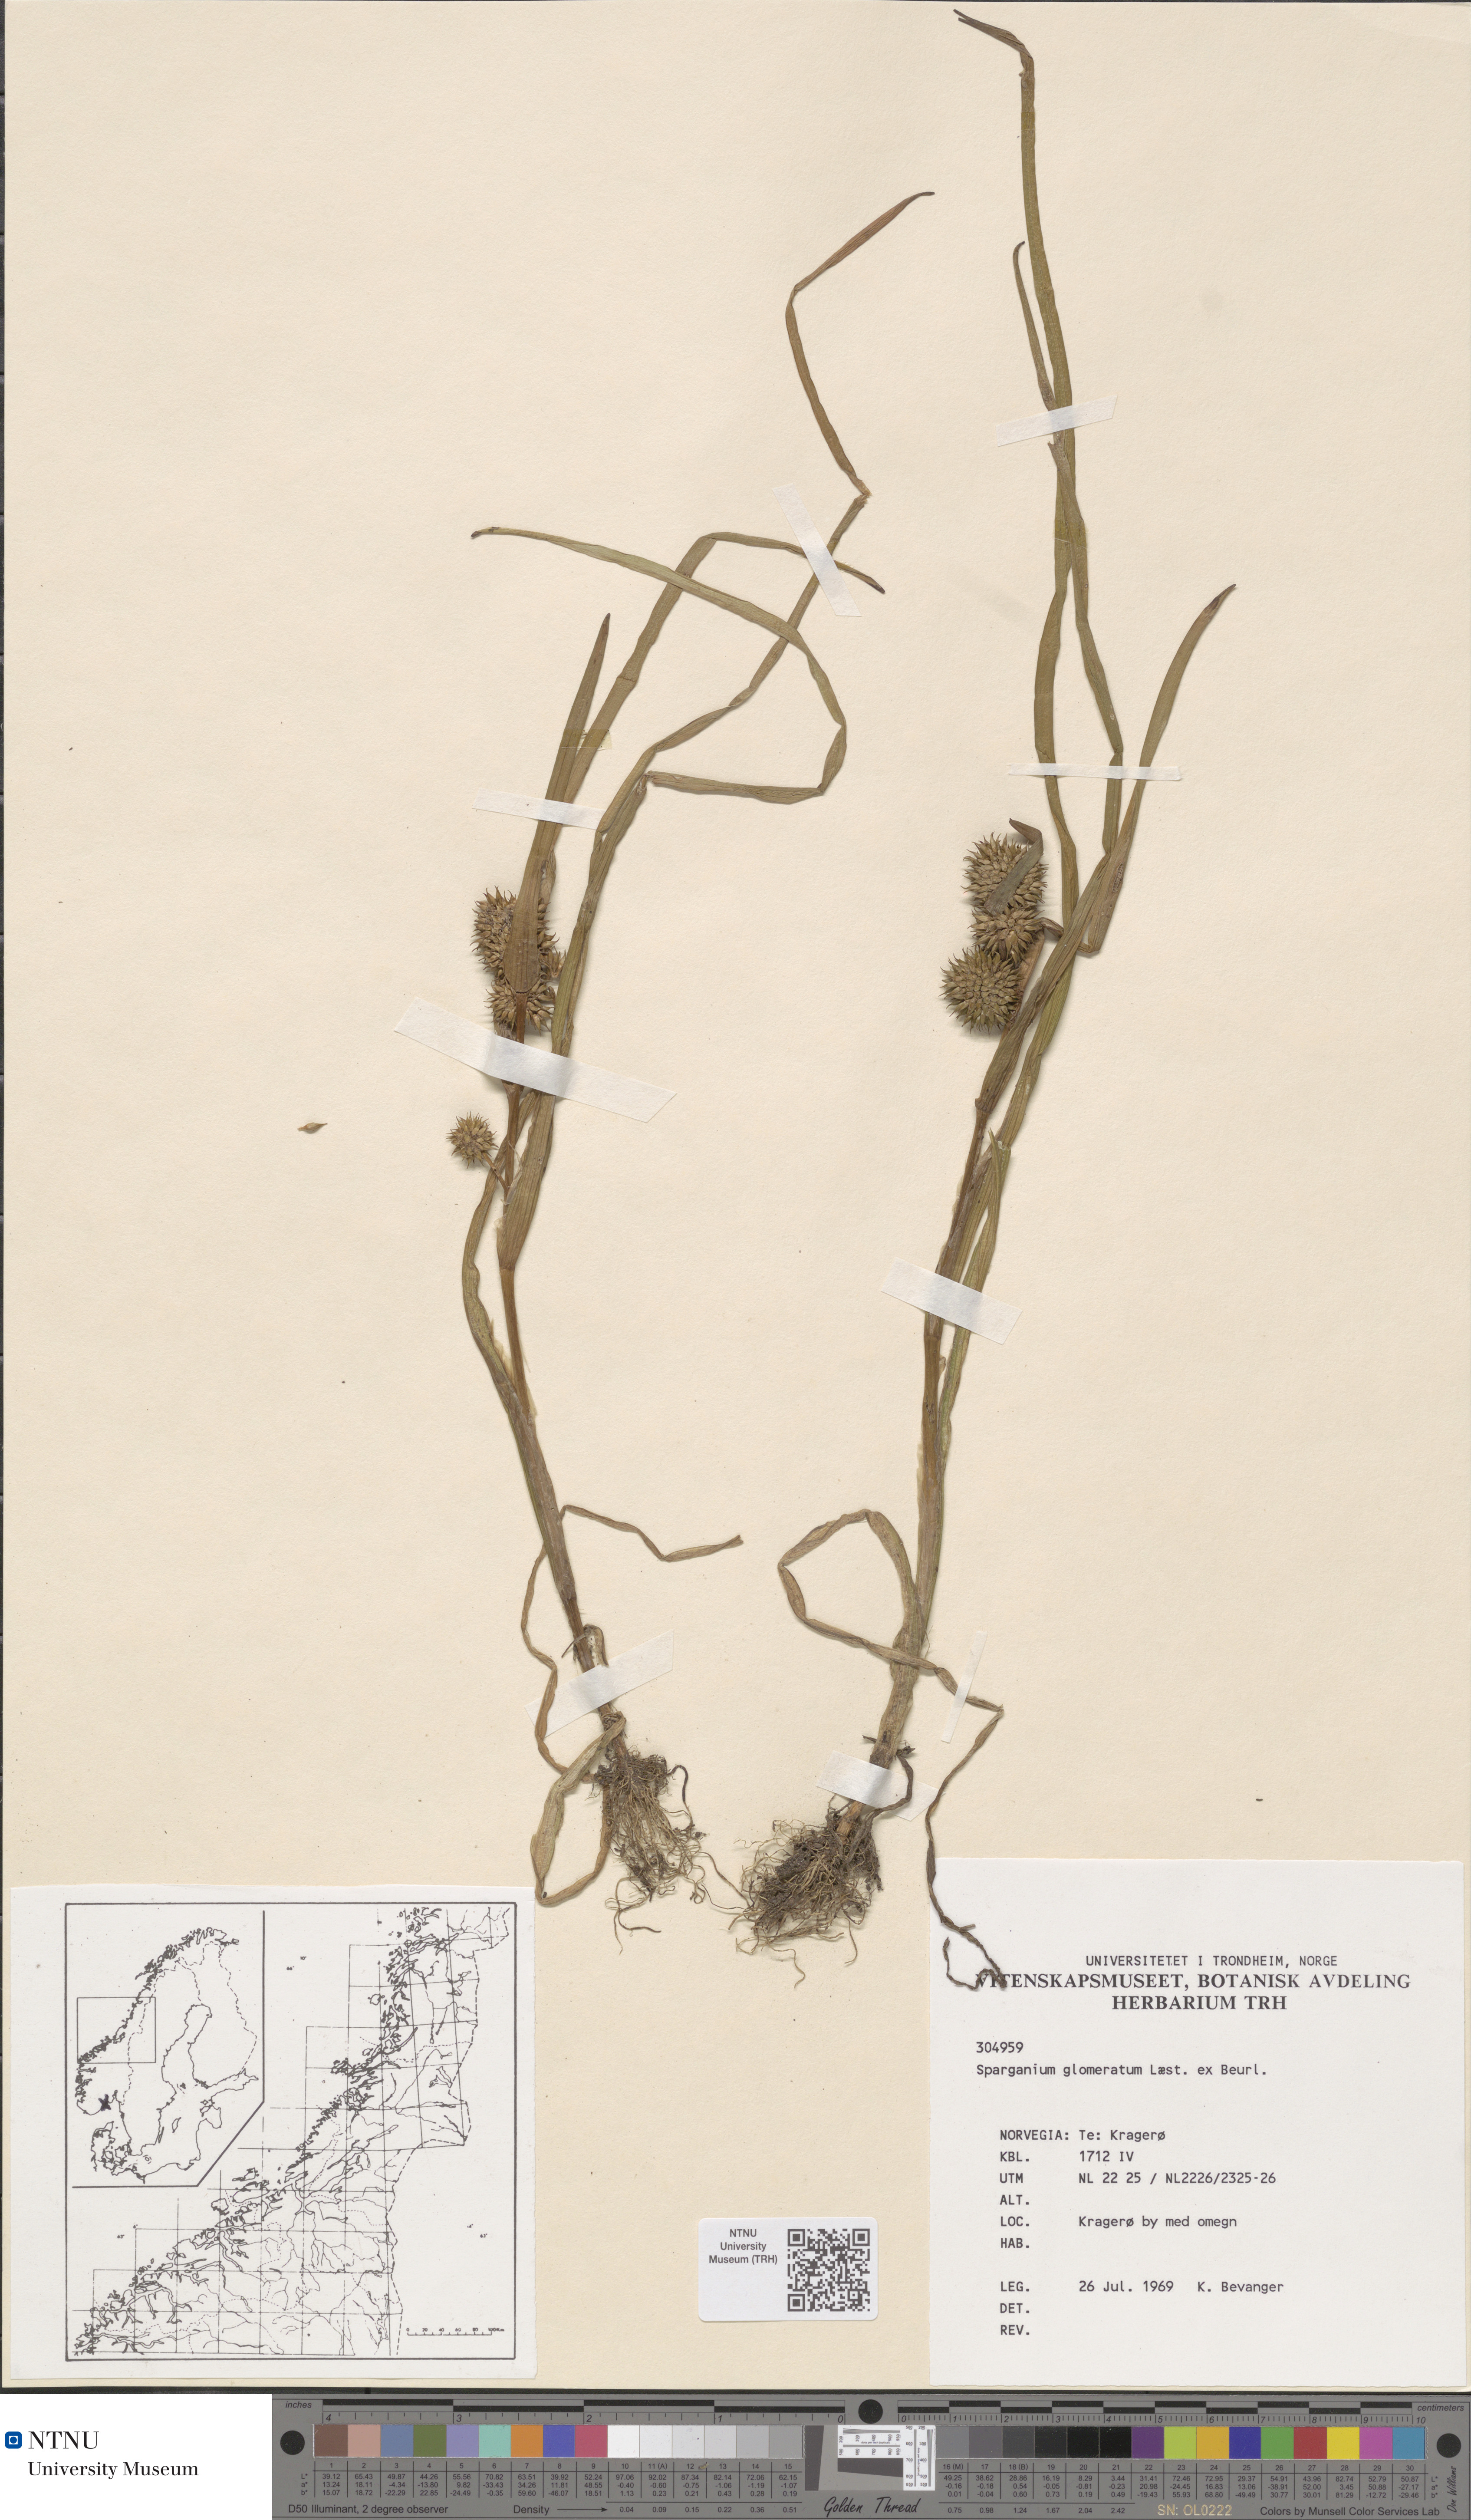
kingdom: Plantae
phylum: Tracheophyta
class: Liliopsida
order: Poales
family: Typhaceae
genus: Sparganium
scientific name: Sparganium glomeratum
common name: Clustered burreed
